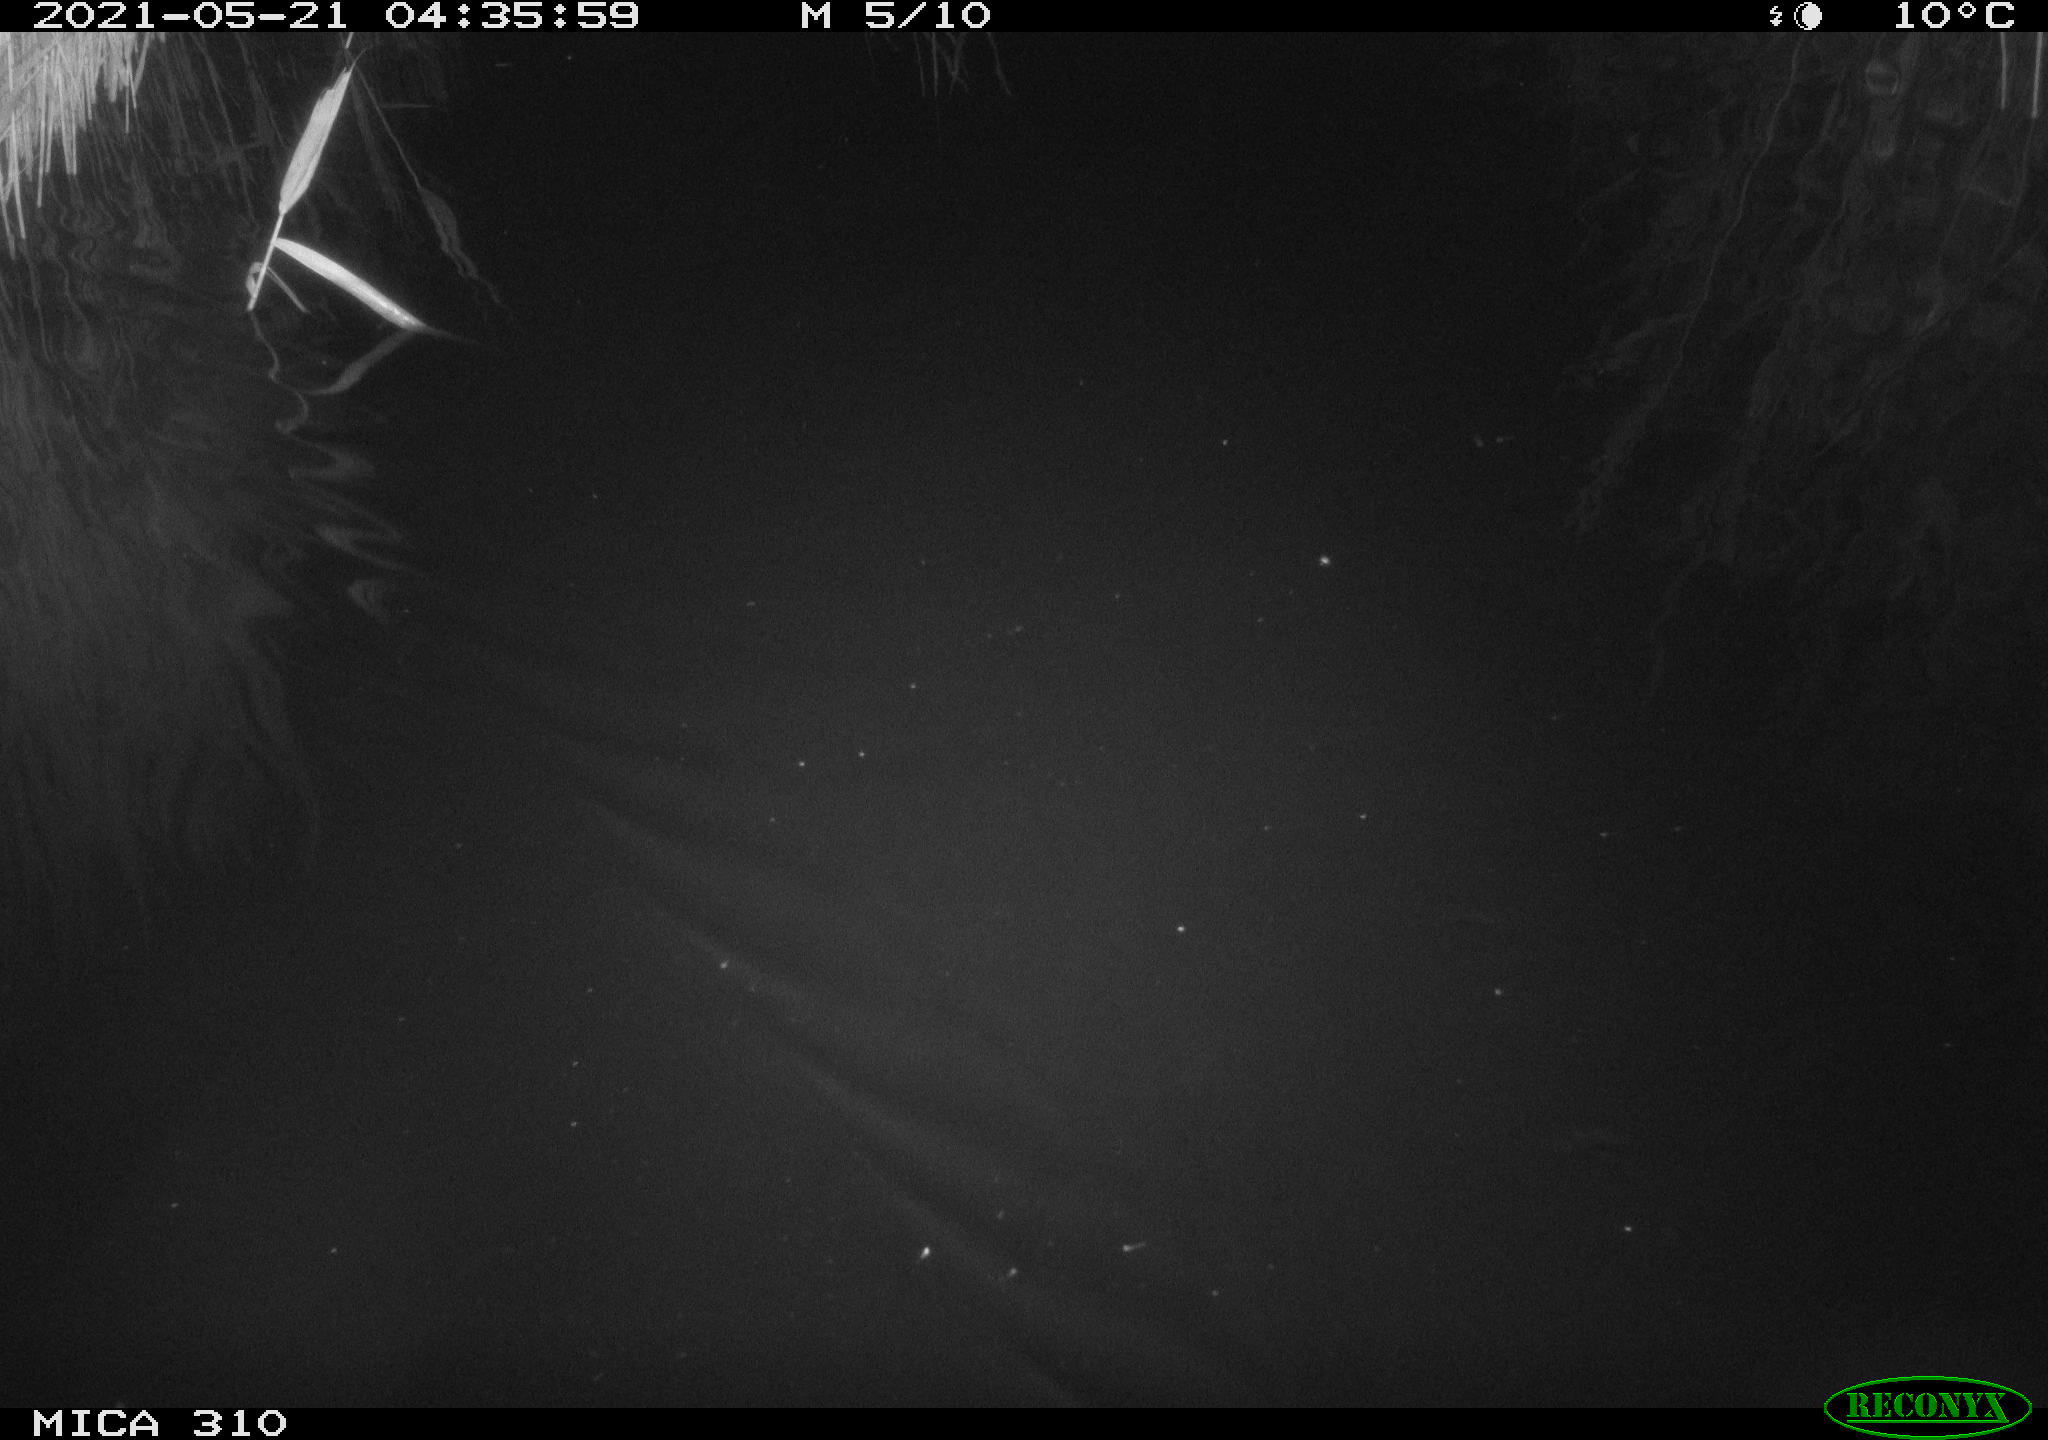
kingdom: Animalia
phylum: Chordata
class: Aves
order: Anseriformes
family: Anatidae
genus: Anas
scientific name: Anas platyrhynchos
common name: Mallard
